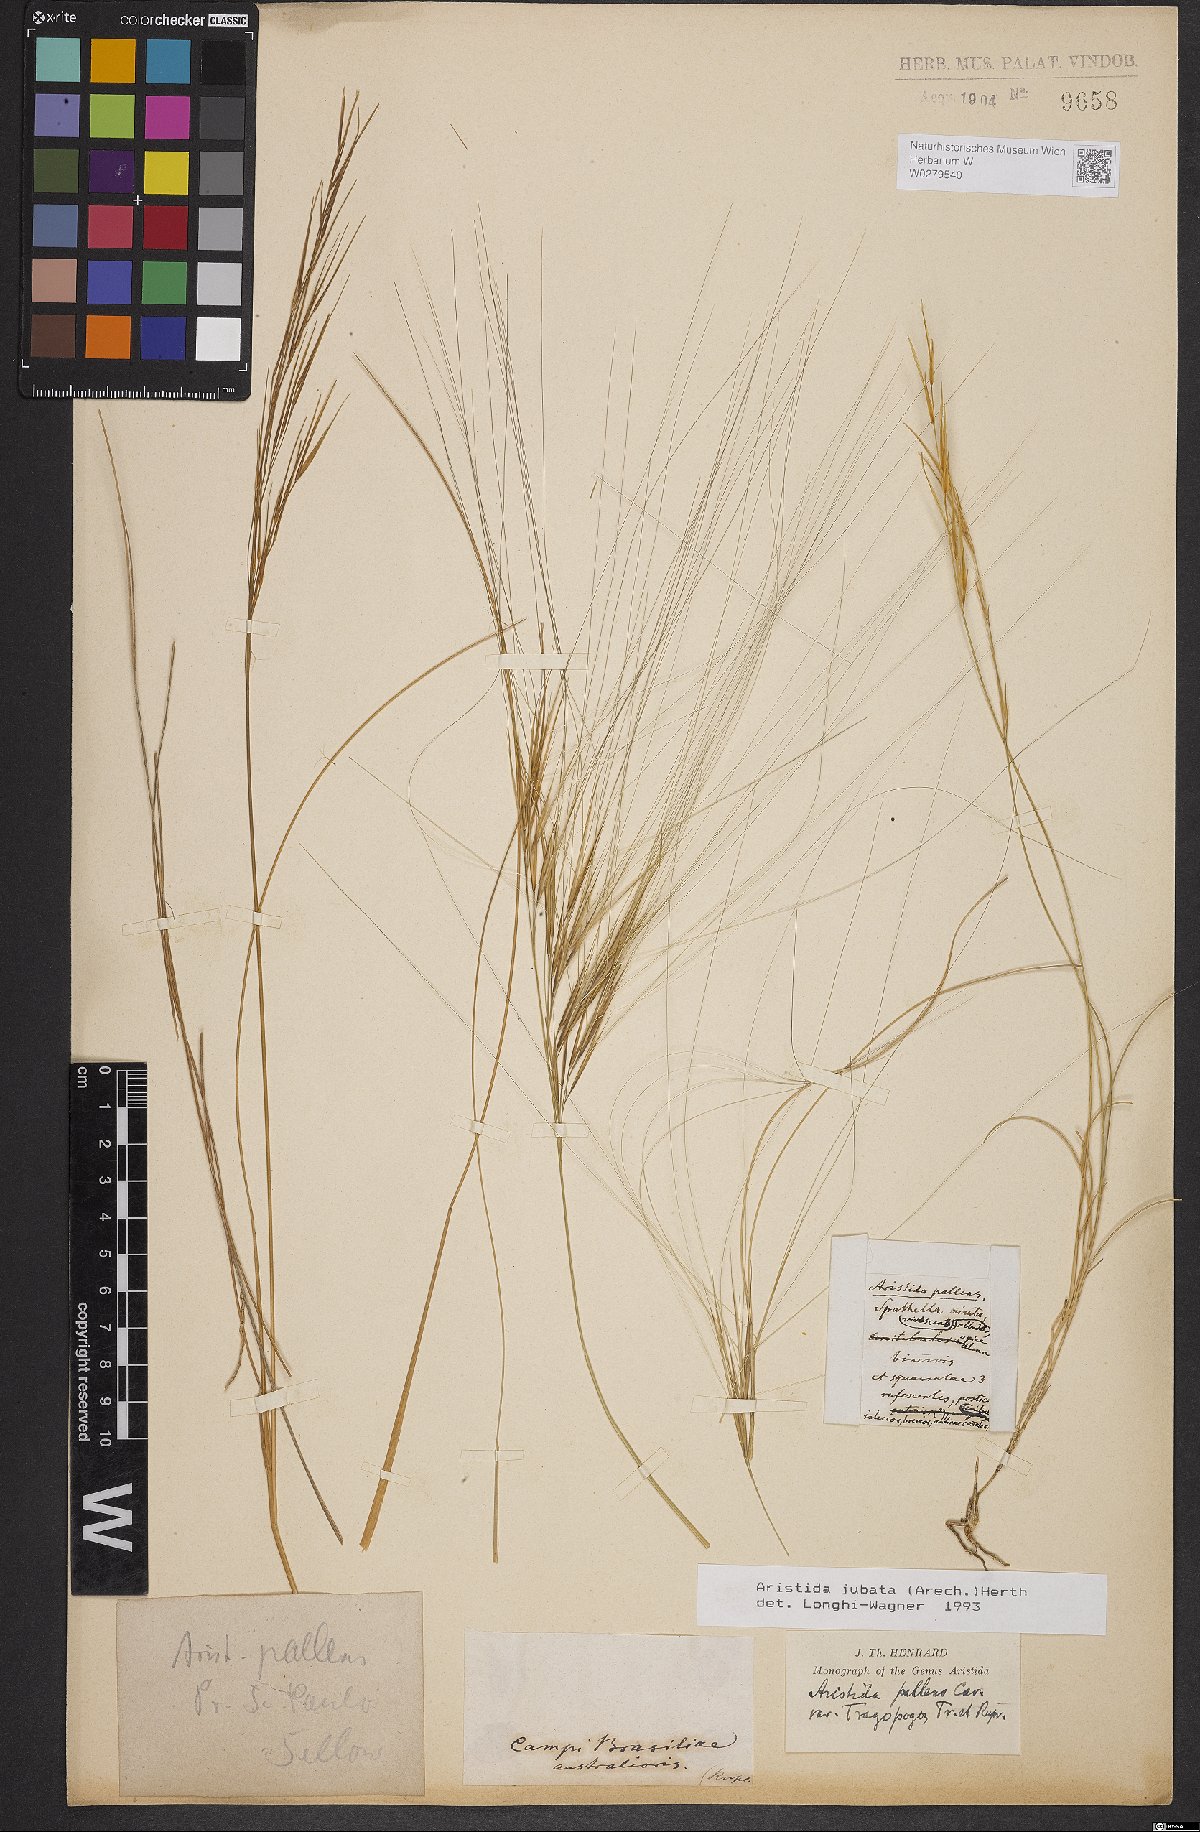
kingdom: Plantae
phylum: Tracheophyta
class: Liliopsida
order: Poales
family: Poaceae
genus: Aristida
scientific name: Aristida jubata
